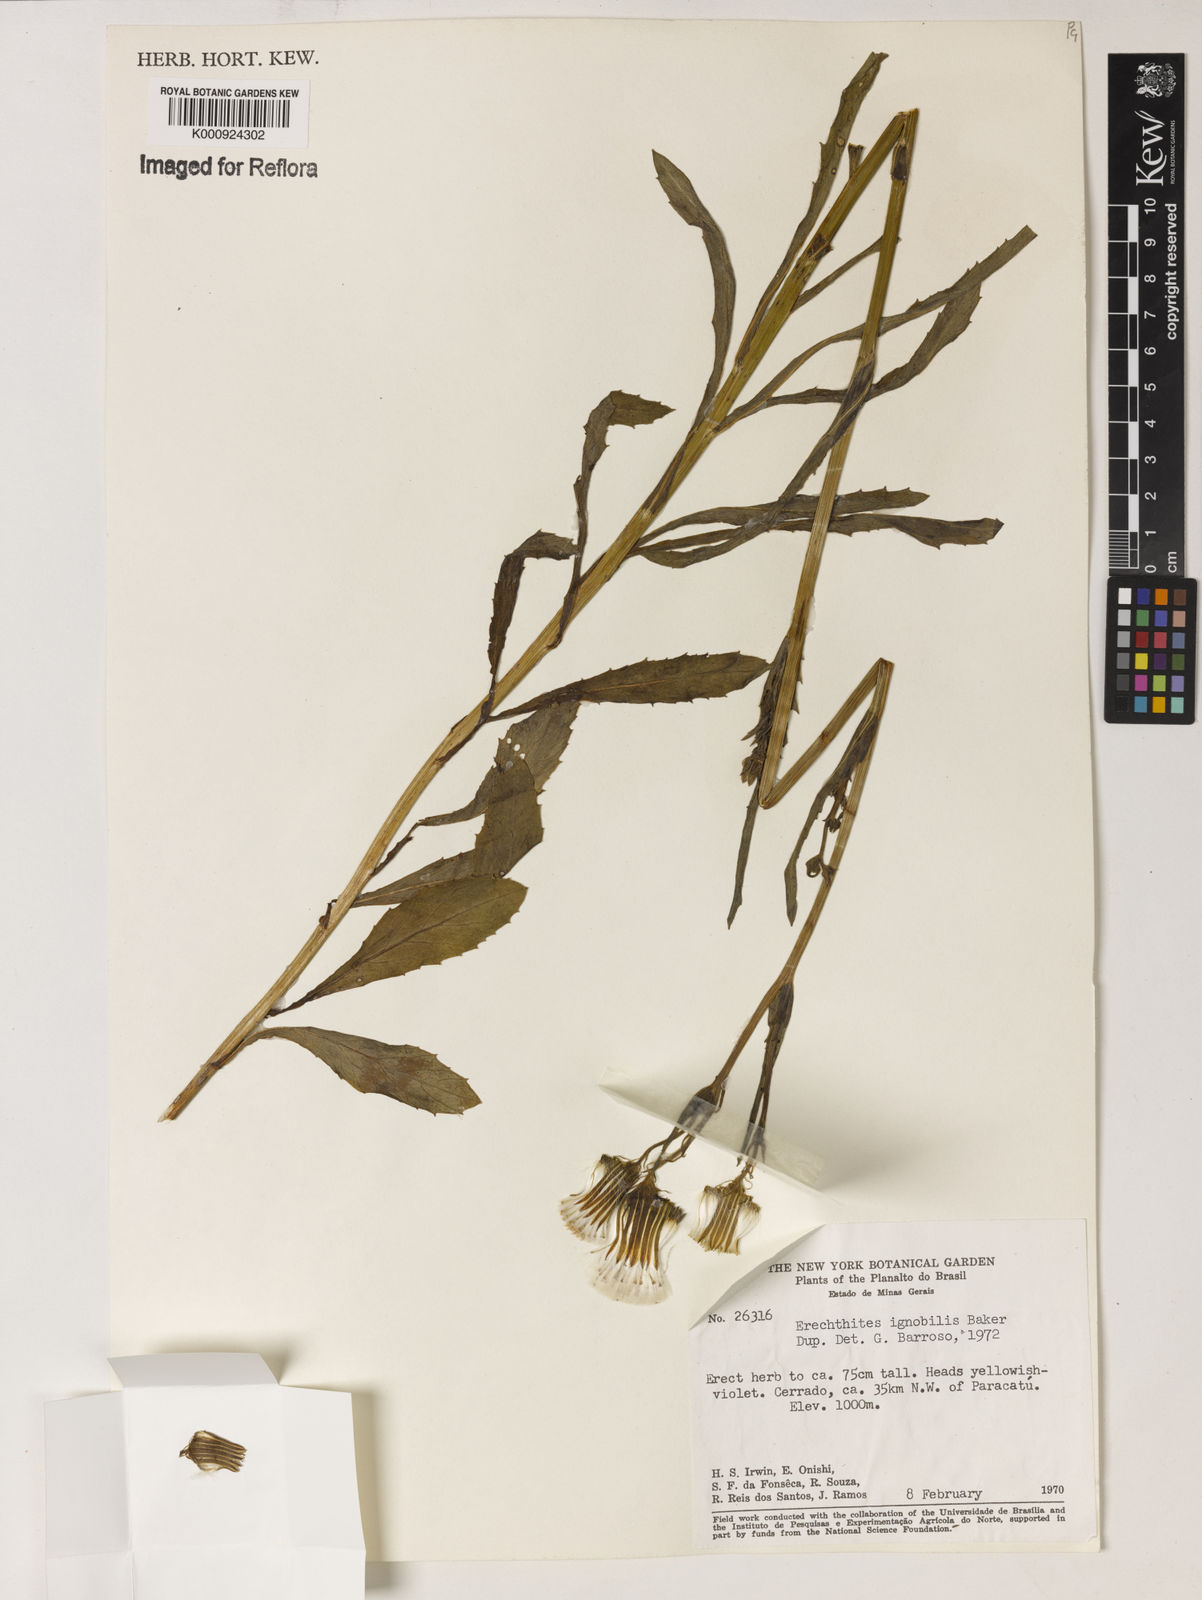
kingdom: Plantae
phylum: Tracheophyta
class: Magnoliopsida
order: Asterales
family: Asteraceae
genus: Erechtites
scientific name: Erechtites ignobilis
